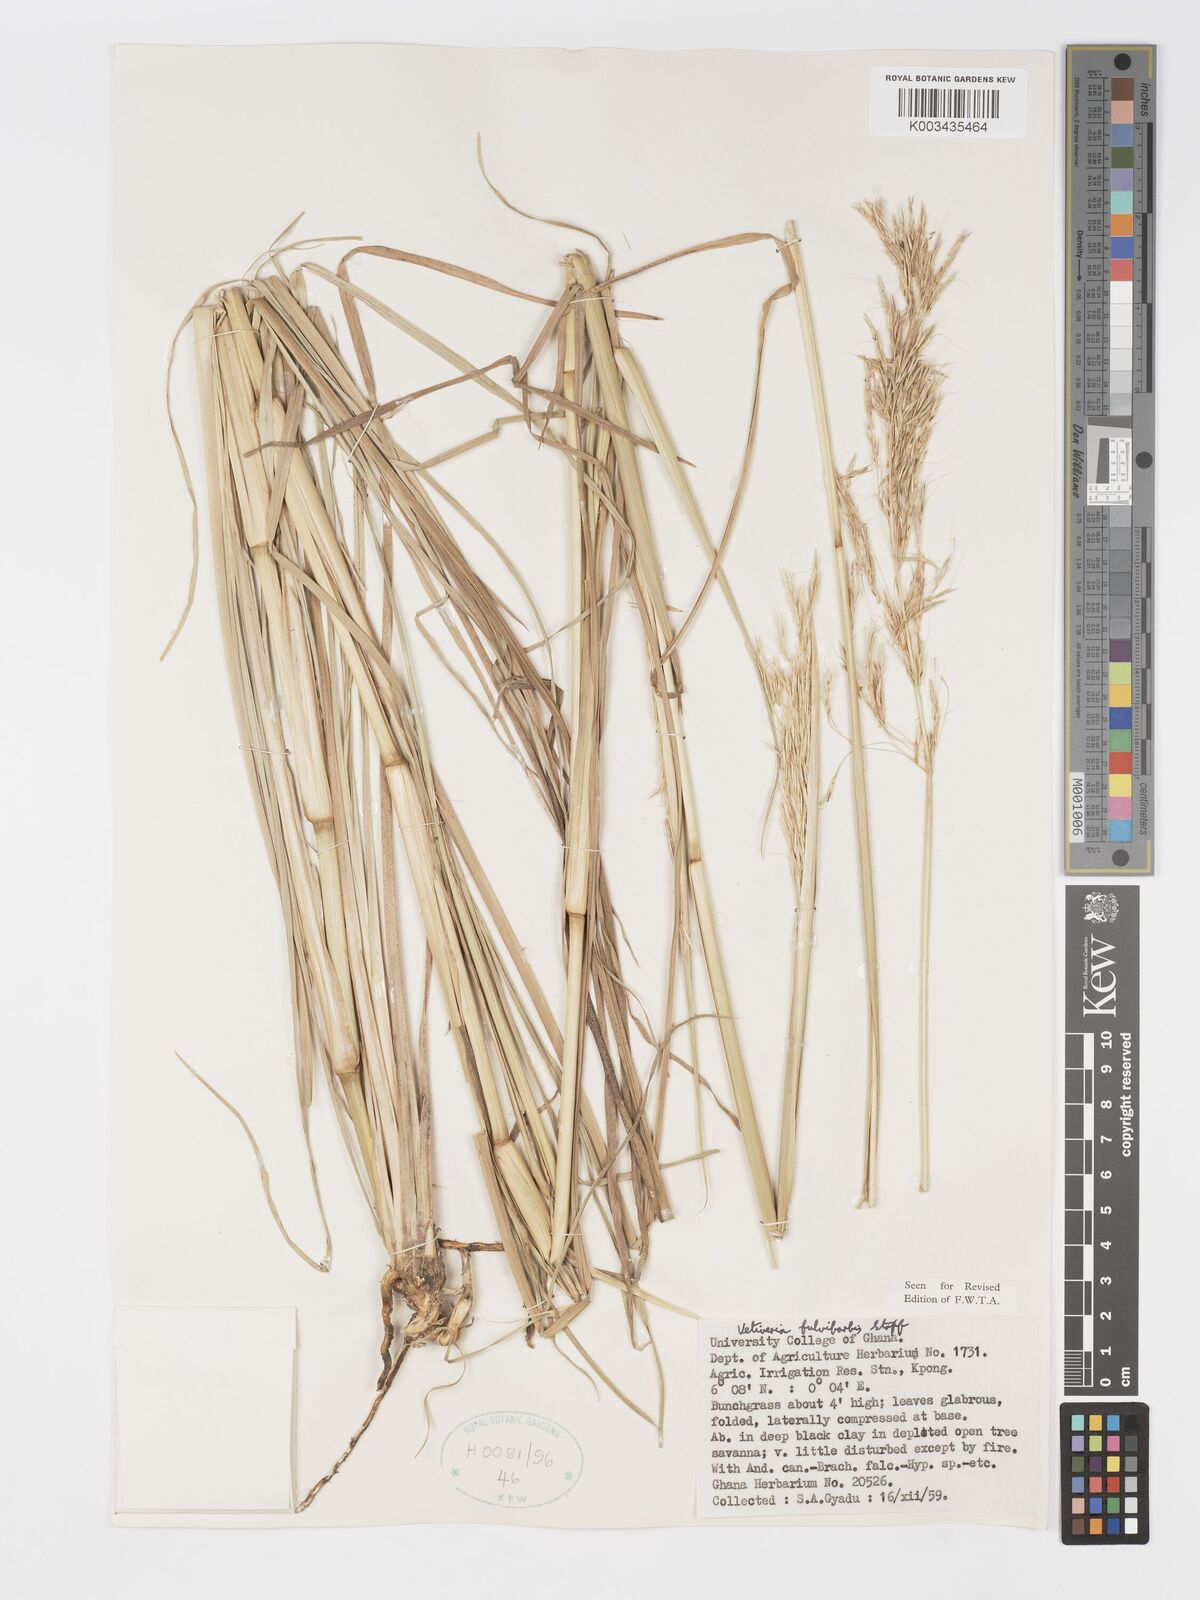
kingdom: Plantae
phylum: Tracheophyta
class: Liliopsida
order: Poales
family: Poaceae
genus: Chrysopogon
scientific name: Chrysopogon fulvibarbis
